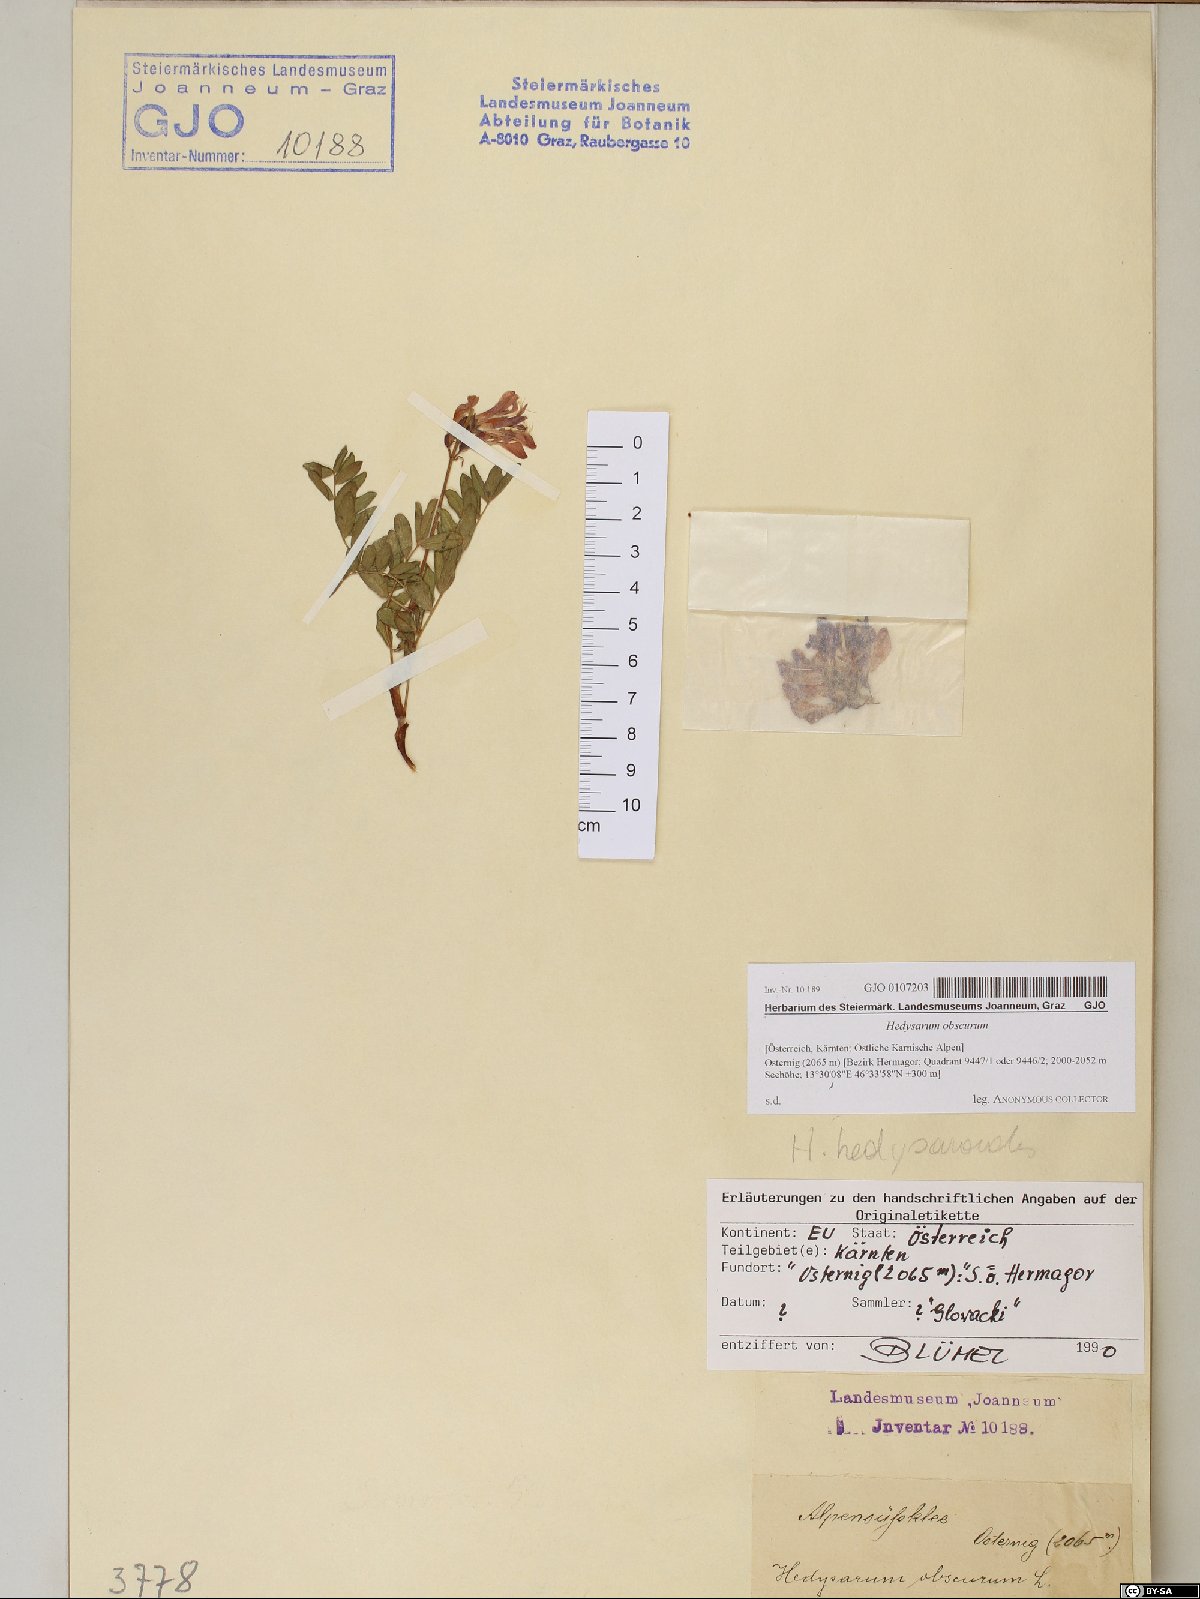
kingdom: Plantae
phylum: Tracheophyta
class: Magnoliopsida
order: Fabales
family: Fabaceae
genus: Hedysarum
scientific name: Hedysarum hedysaroides
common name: Alpine french-honeysuckle
